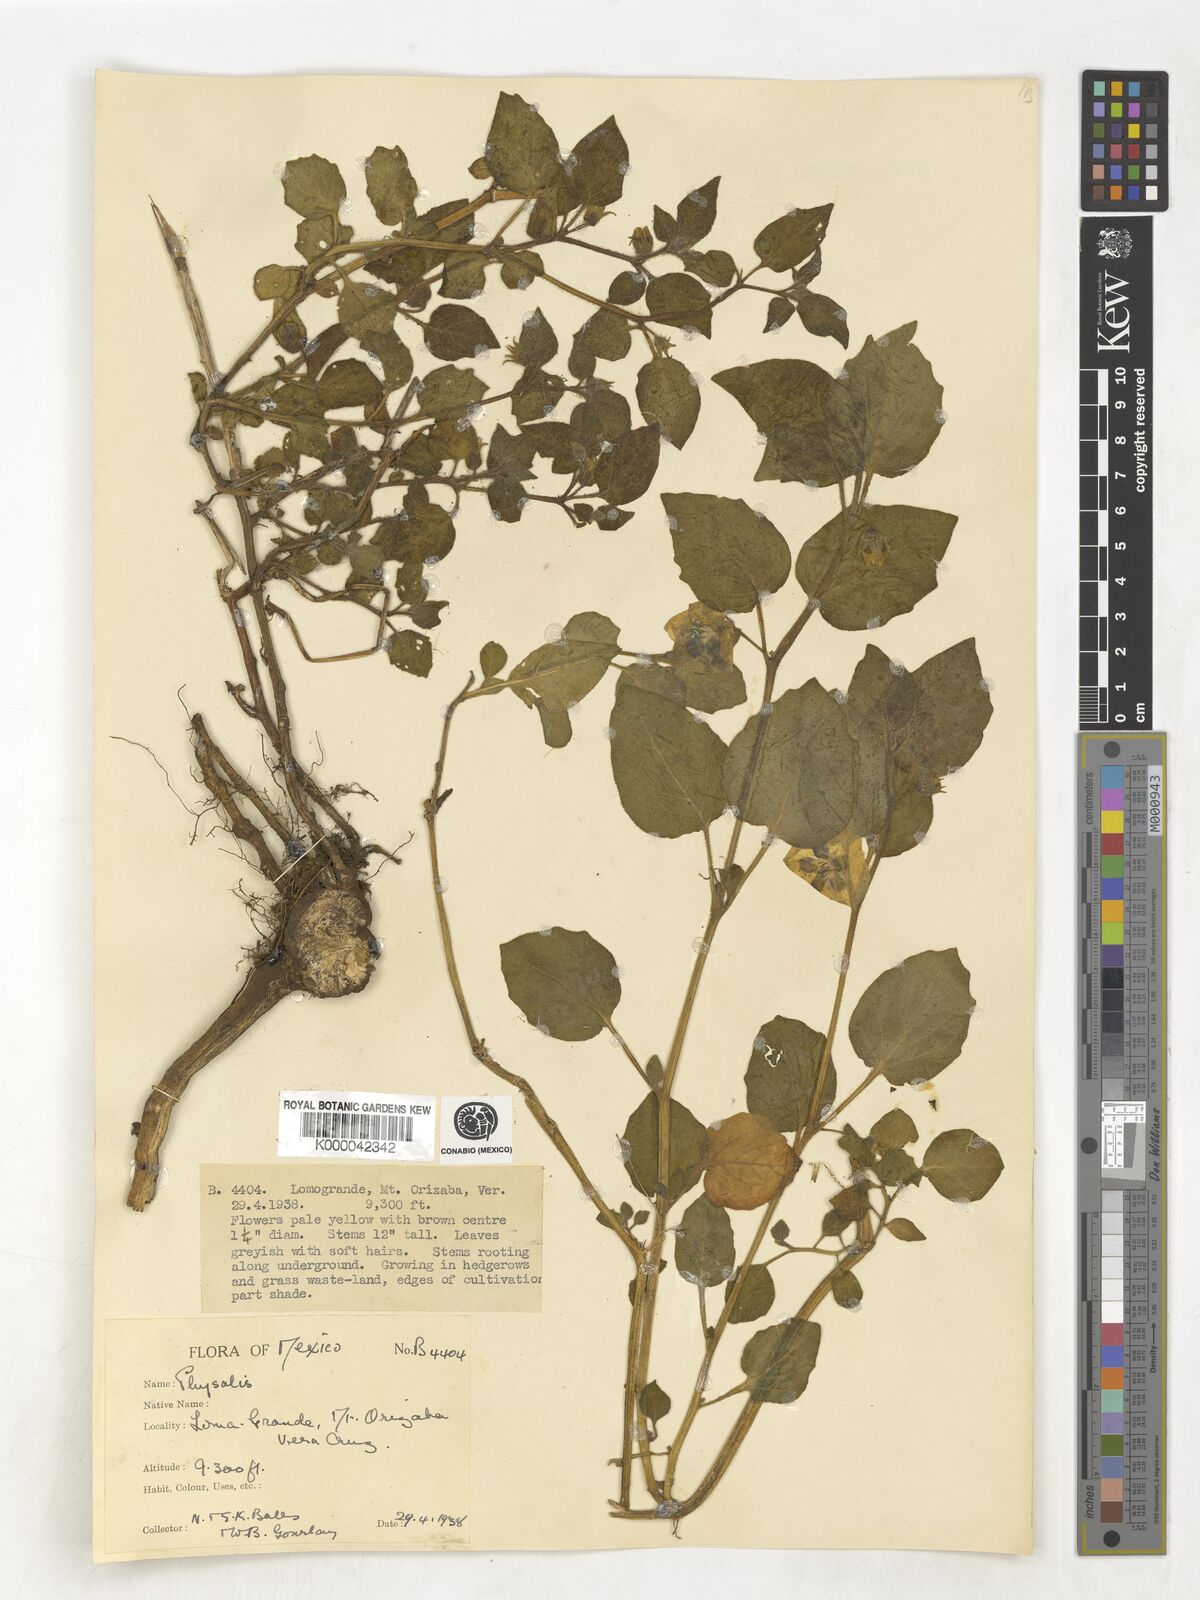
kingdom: Plantae
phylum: Tracheophyta
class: Magnoliopsida
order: Solanales
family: Solanaceae
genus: Physalis
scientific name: Physalis
